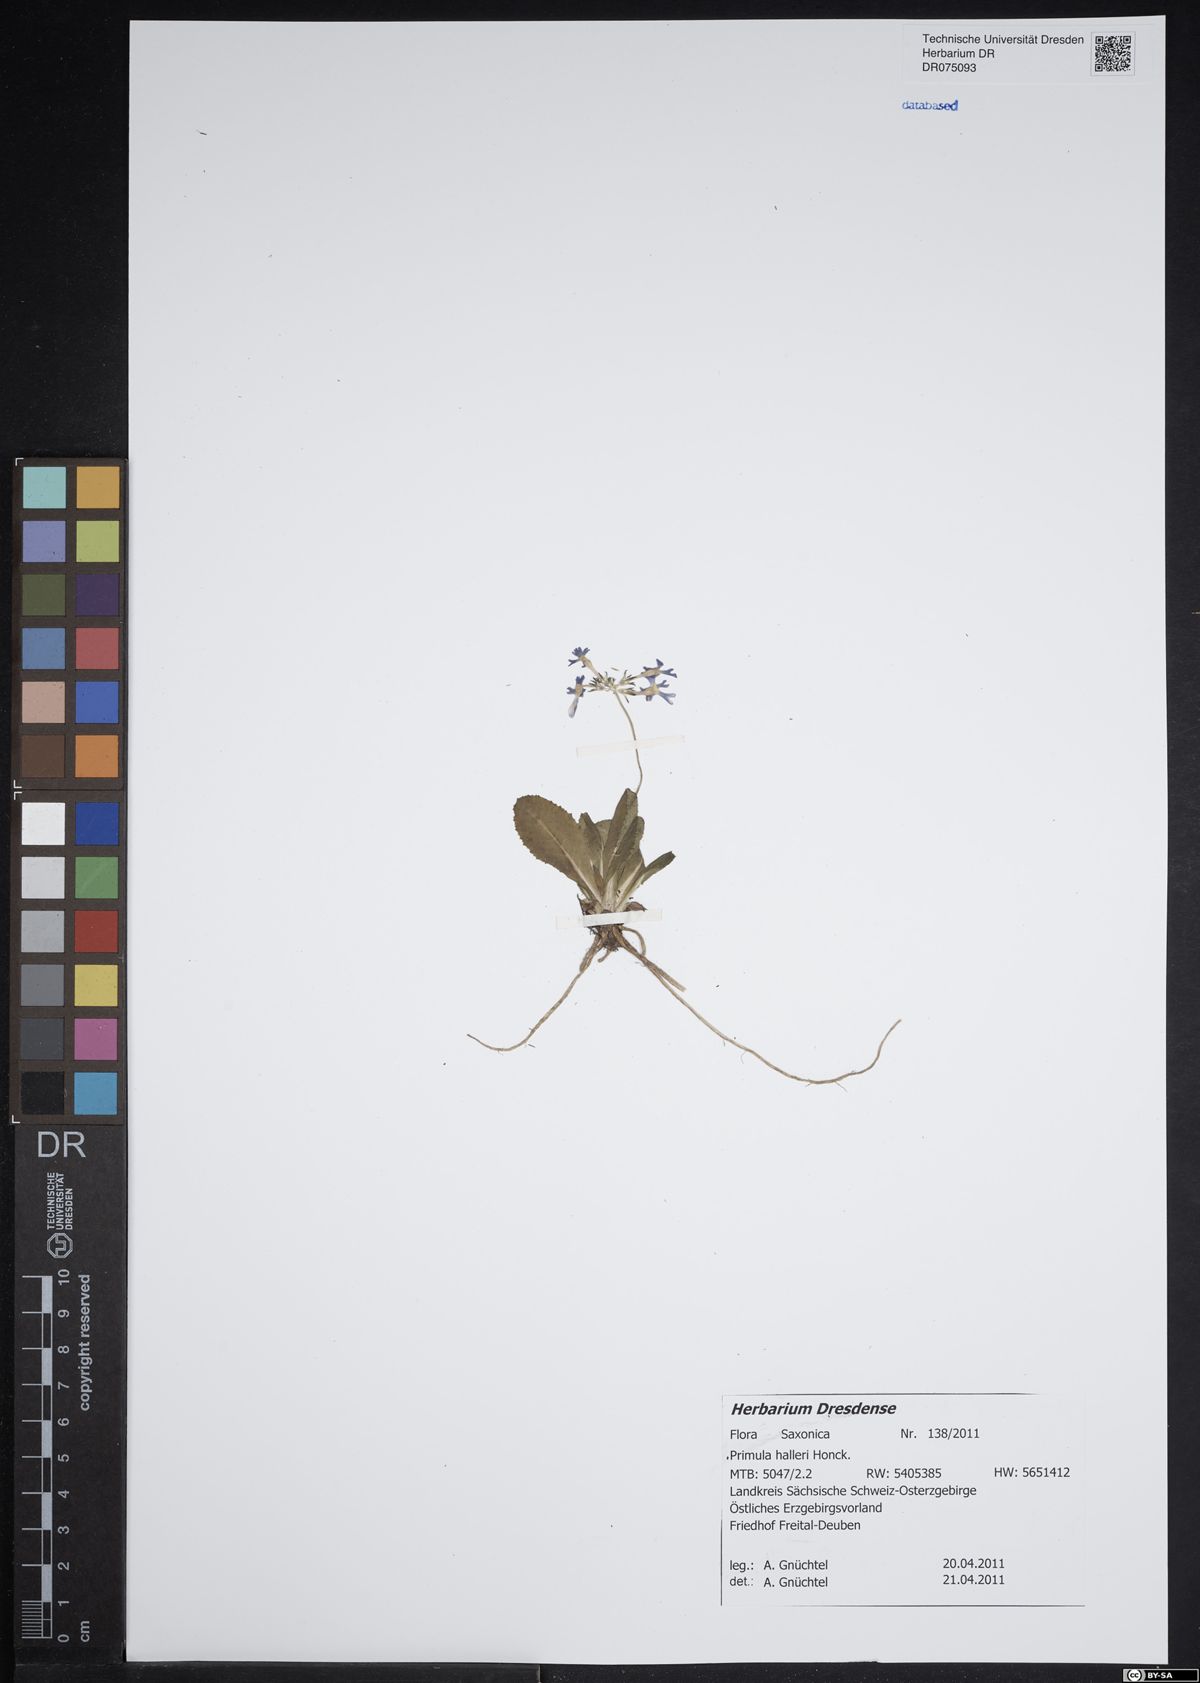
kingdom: Plantae
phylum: Tracheophyta
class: Magnoliopsida
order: Ericales
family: Primulaceae
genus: Primula
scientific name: Primula halleri
